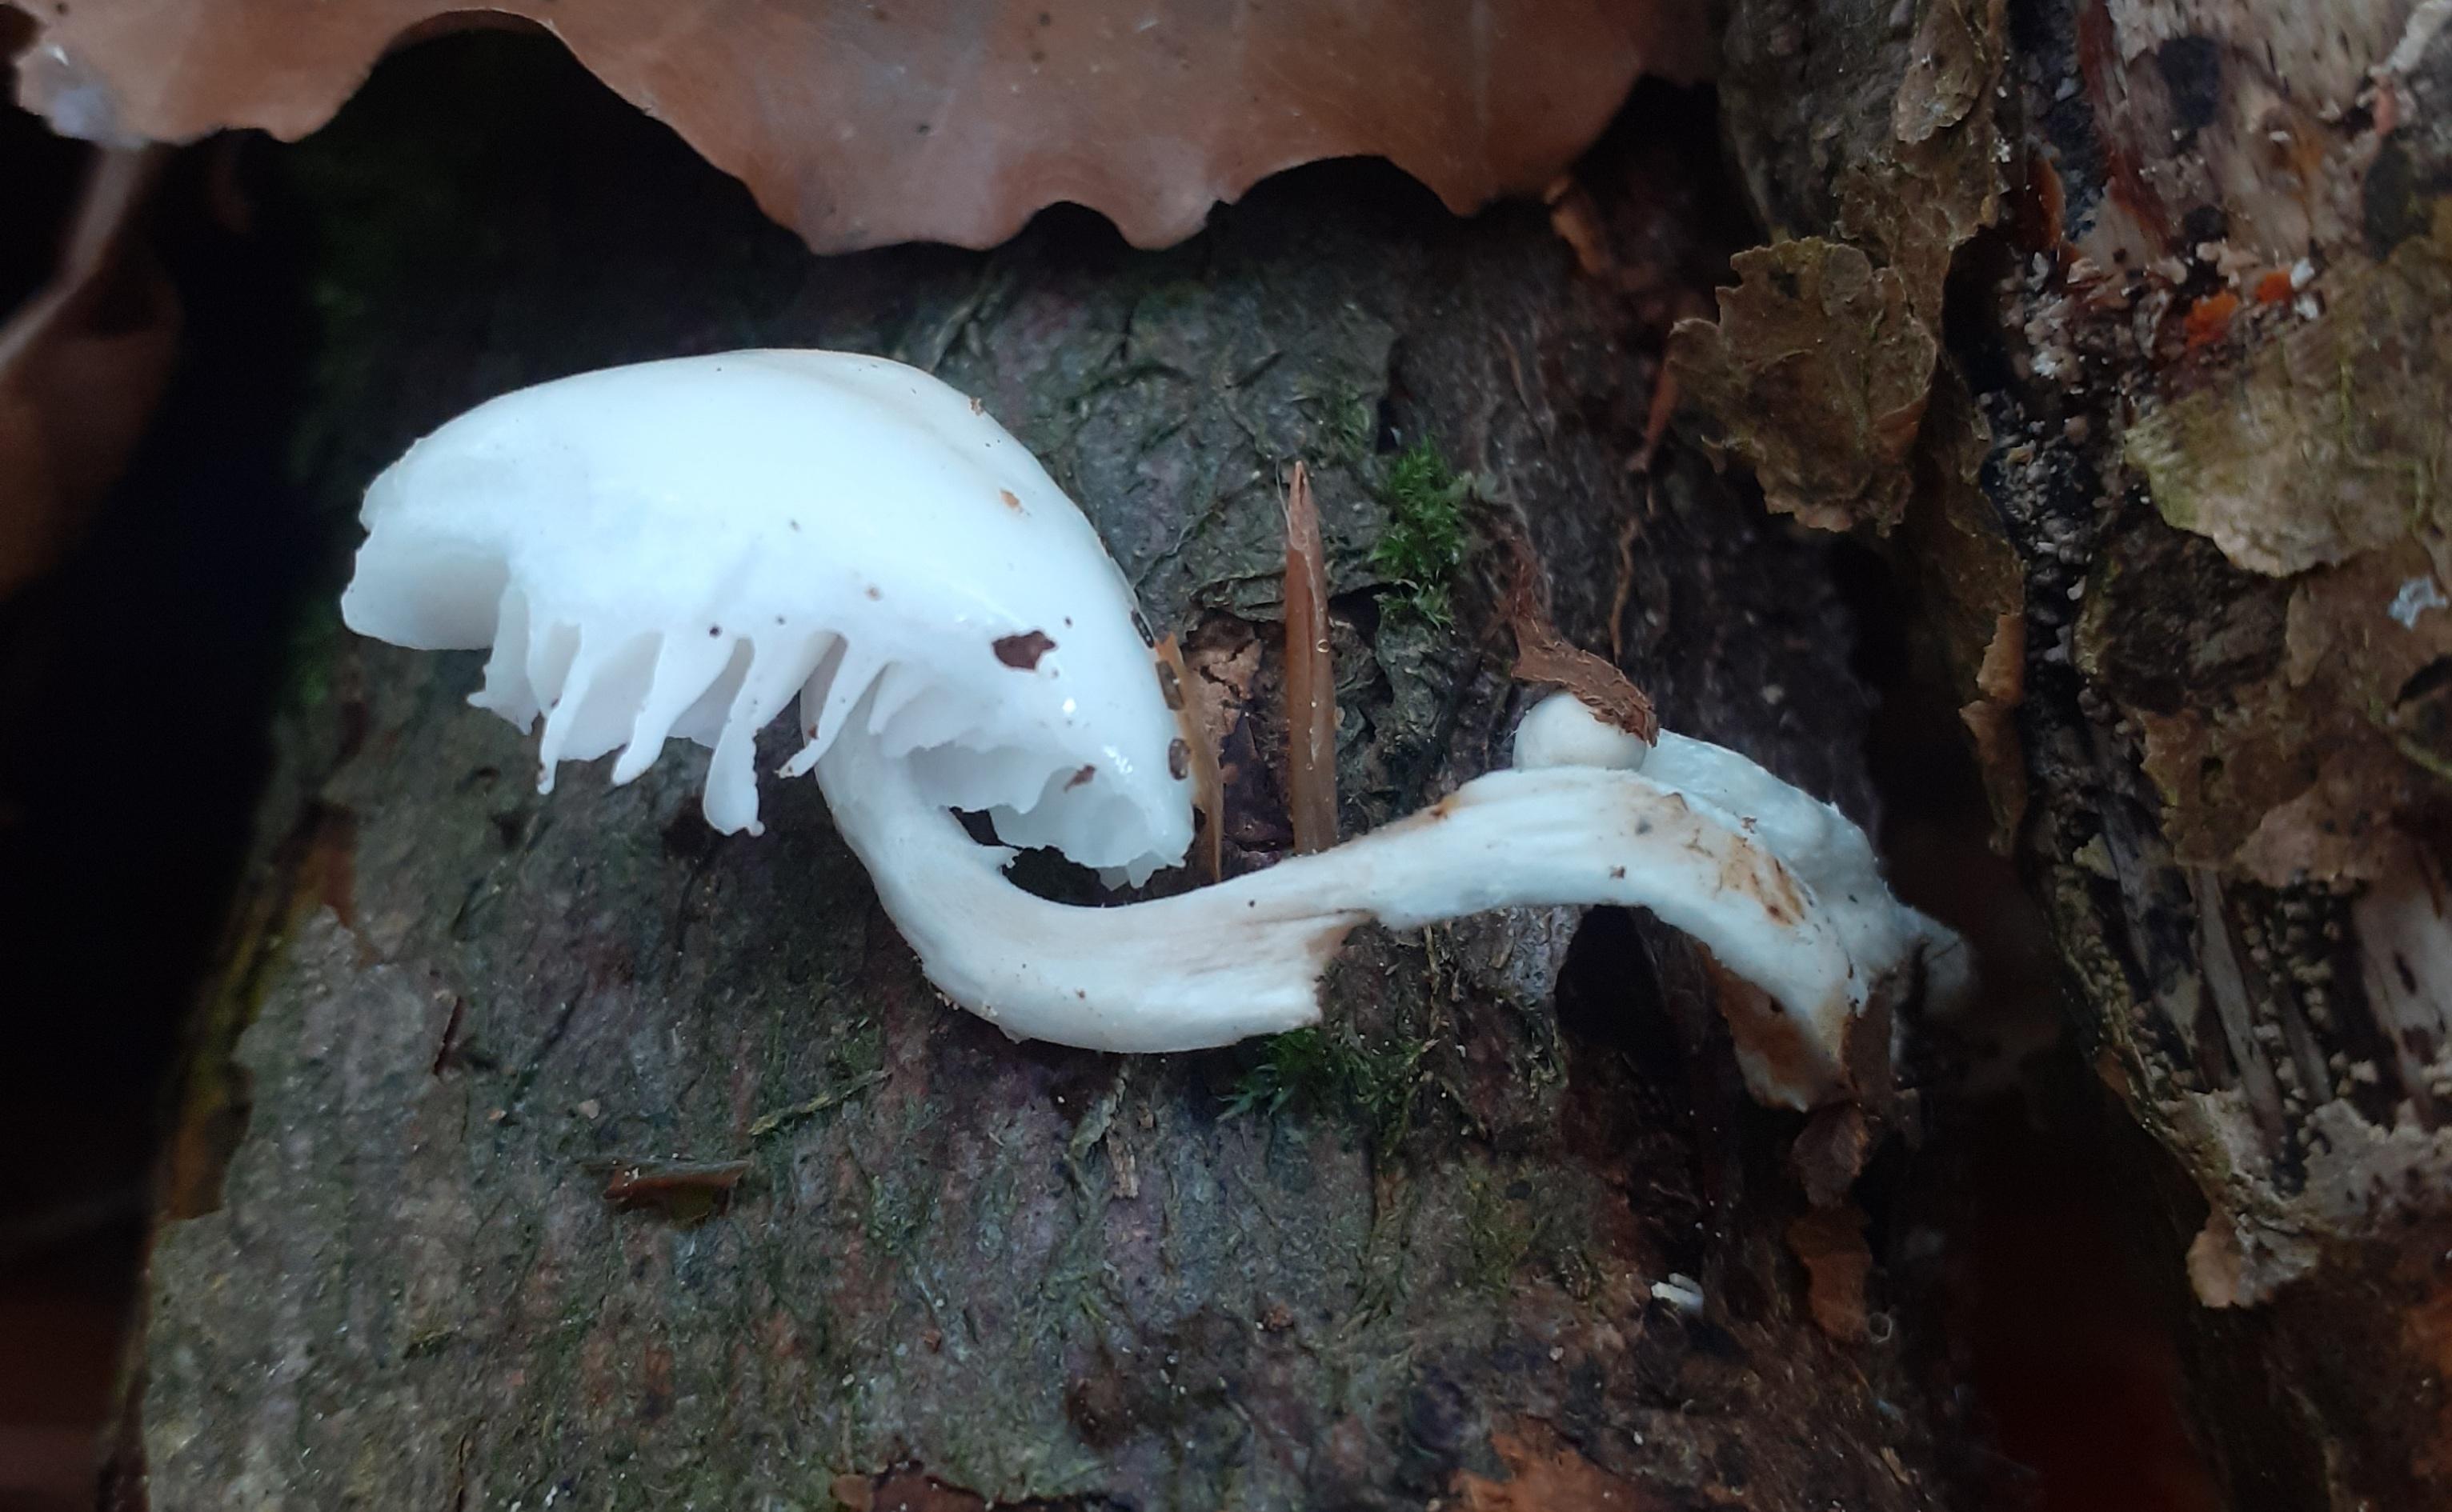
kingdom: Fungi
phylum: Basidiomycota
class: Agaricomycetes
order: Agaricales
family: Physalacriaceae
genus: Mucidula
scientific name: Mucidula mucida
